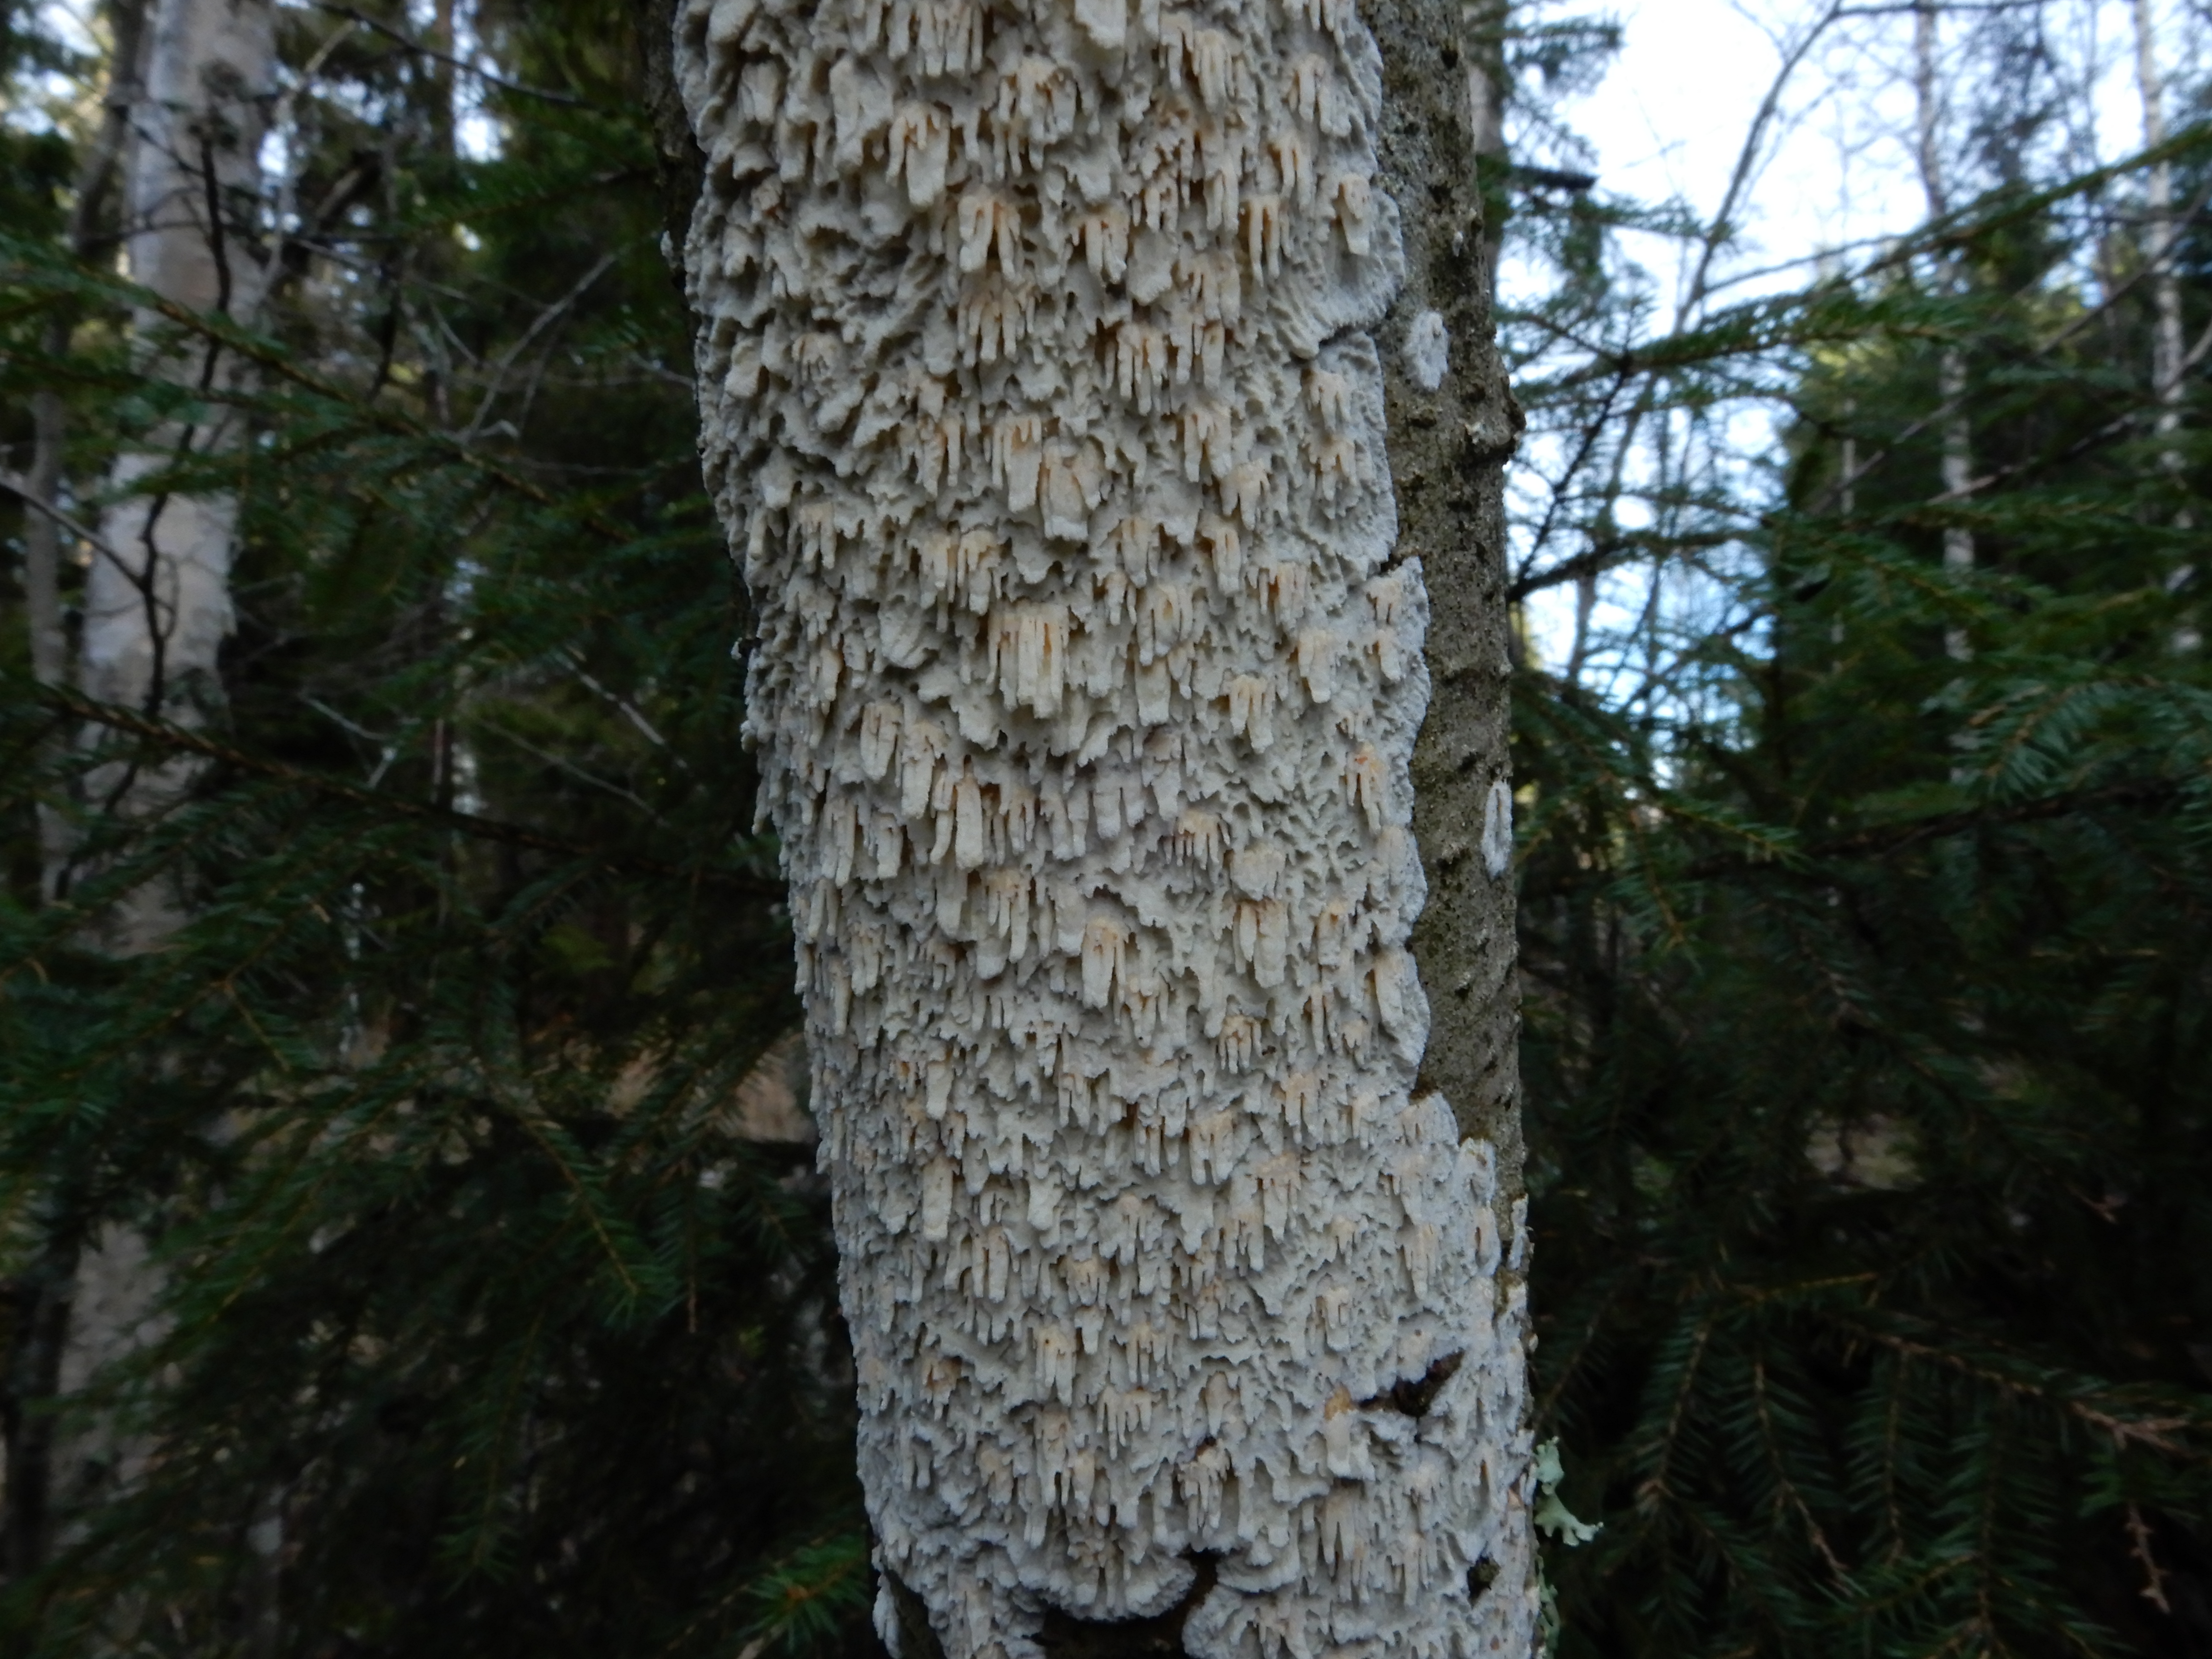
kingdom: Fungi
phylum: Basidiomycota
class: Agaricomycetes
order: Hymenochaetales
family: Schizoporaceae
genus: Xylodon
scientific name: Xylodon radula
